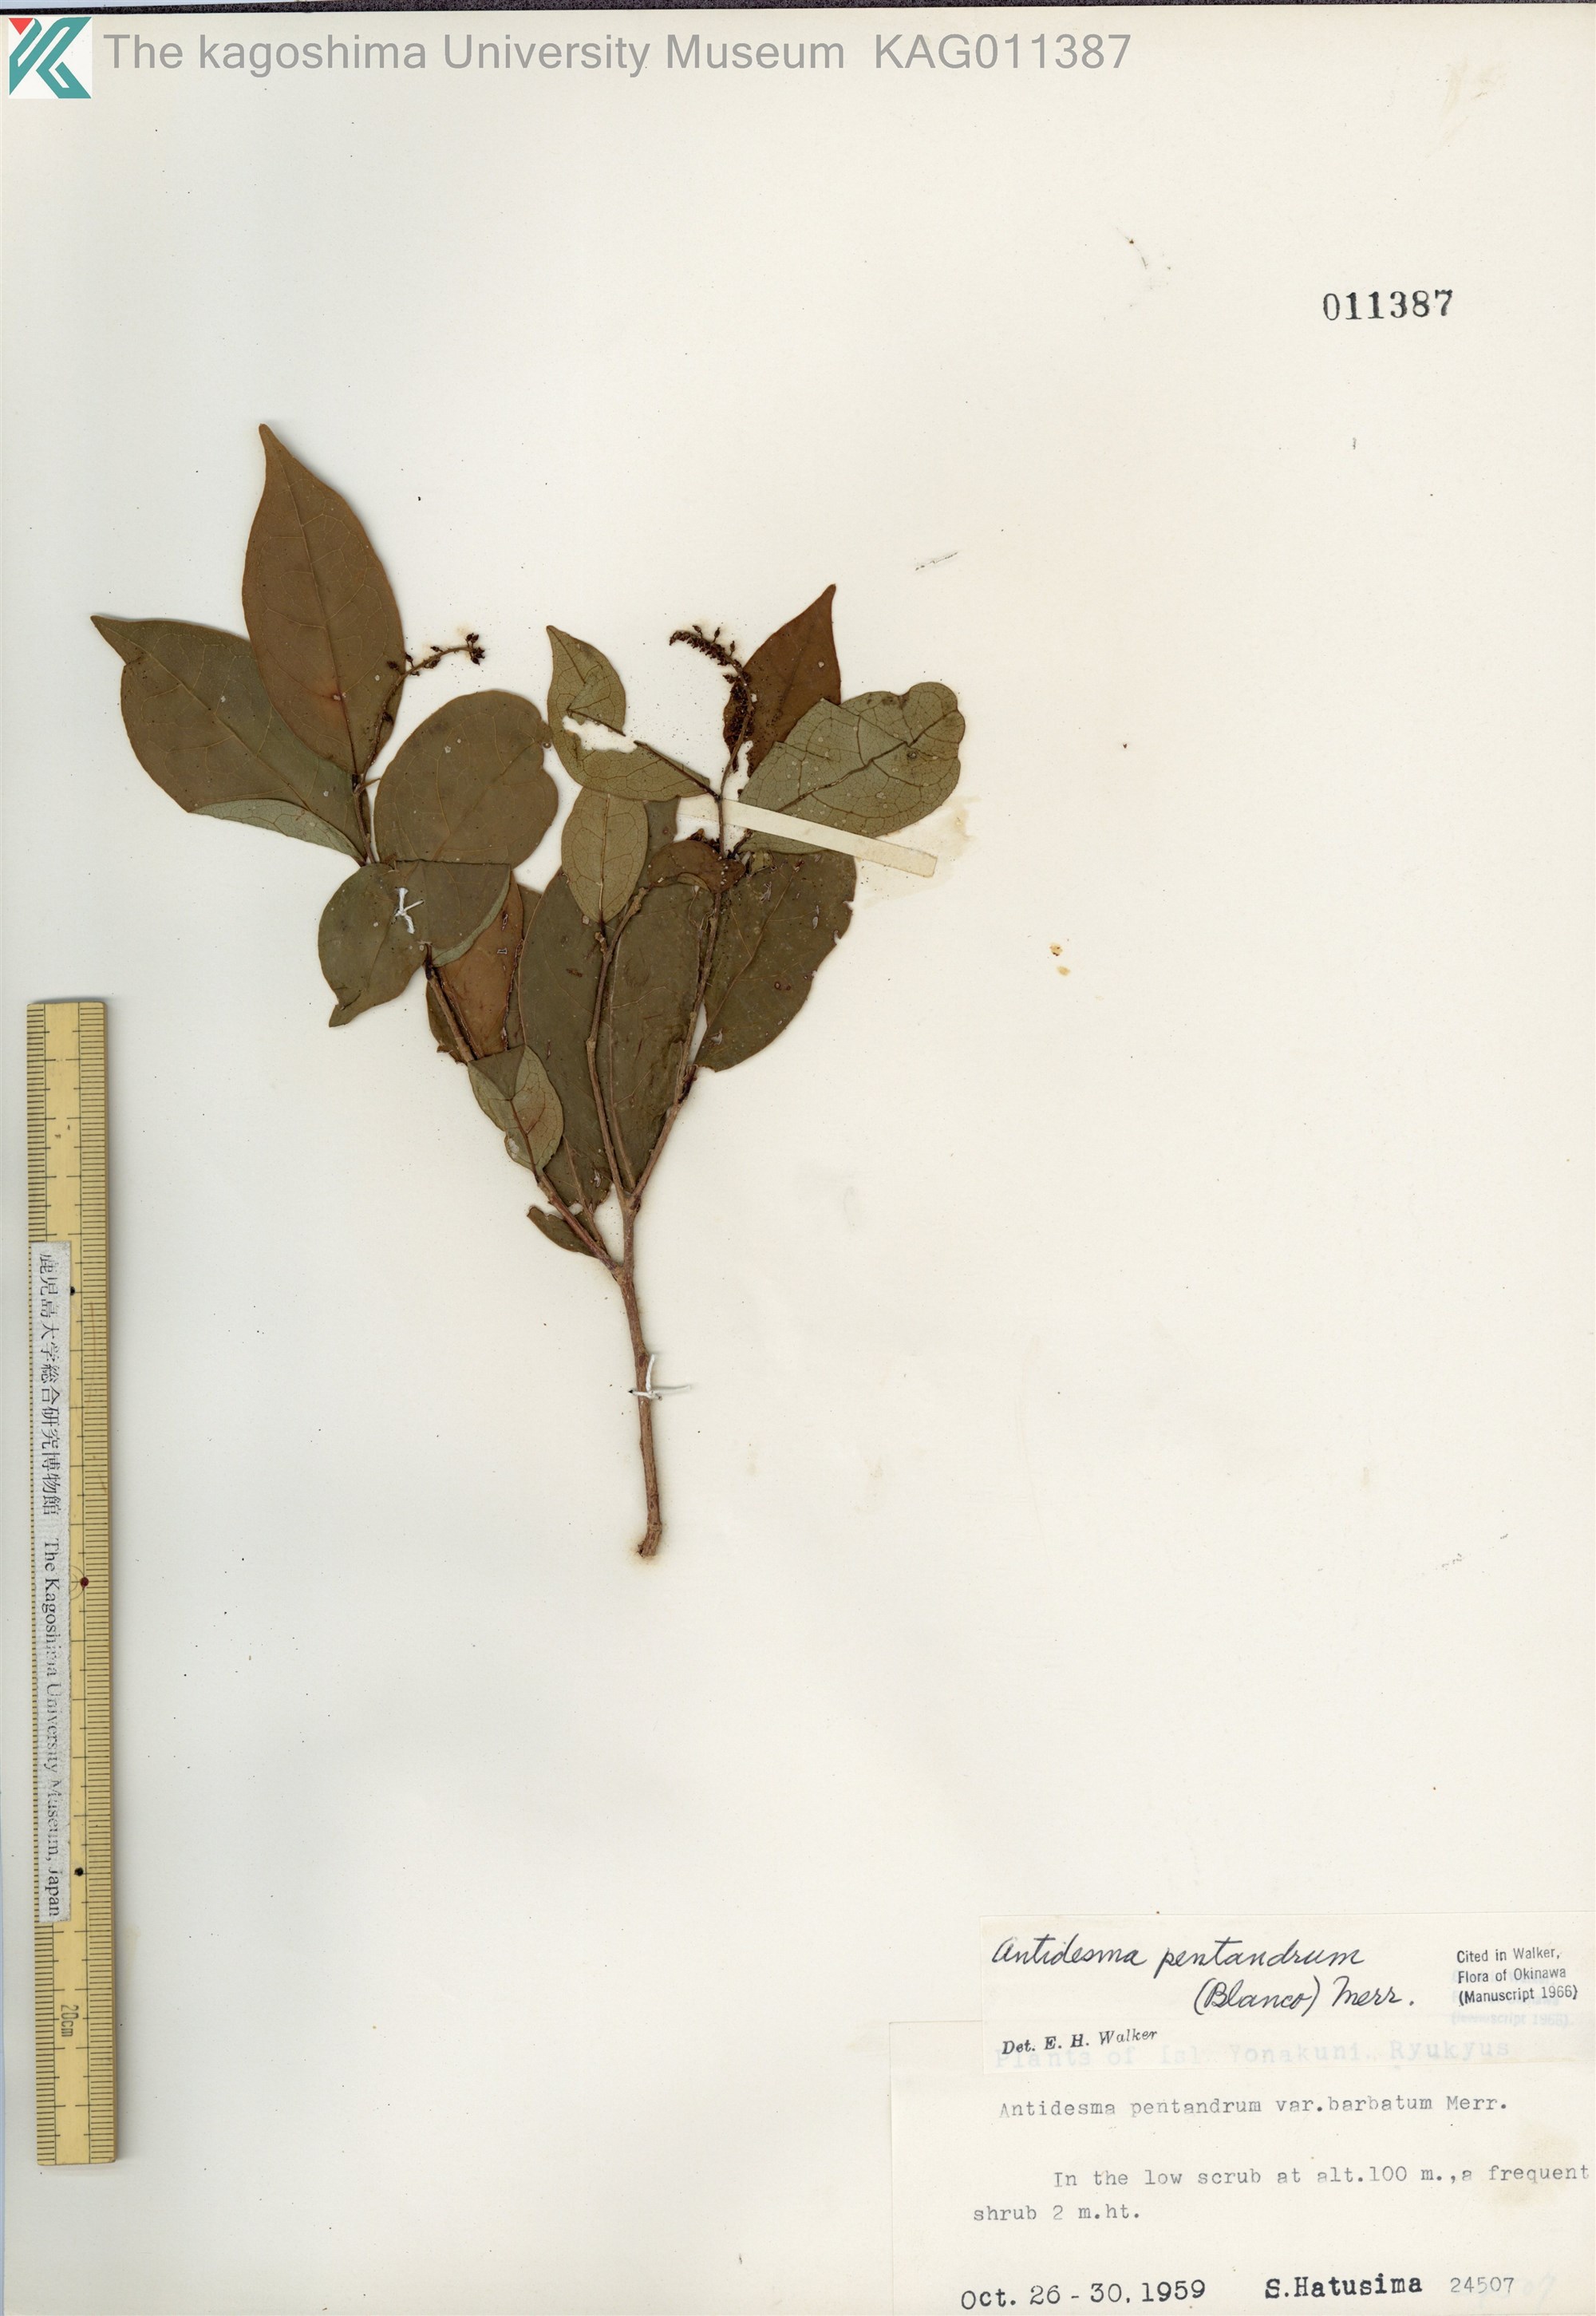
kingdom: Plantae
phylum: Tracheophyta
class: Magnoliopsida
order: Malpighiales
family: Phyllanthaceae
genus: Antidesma
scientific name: Antidesma montanum
